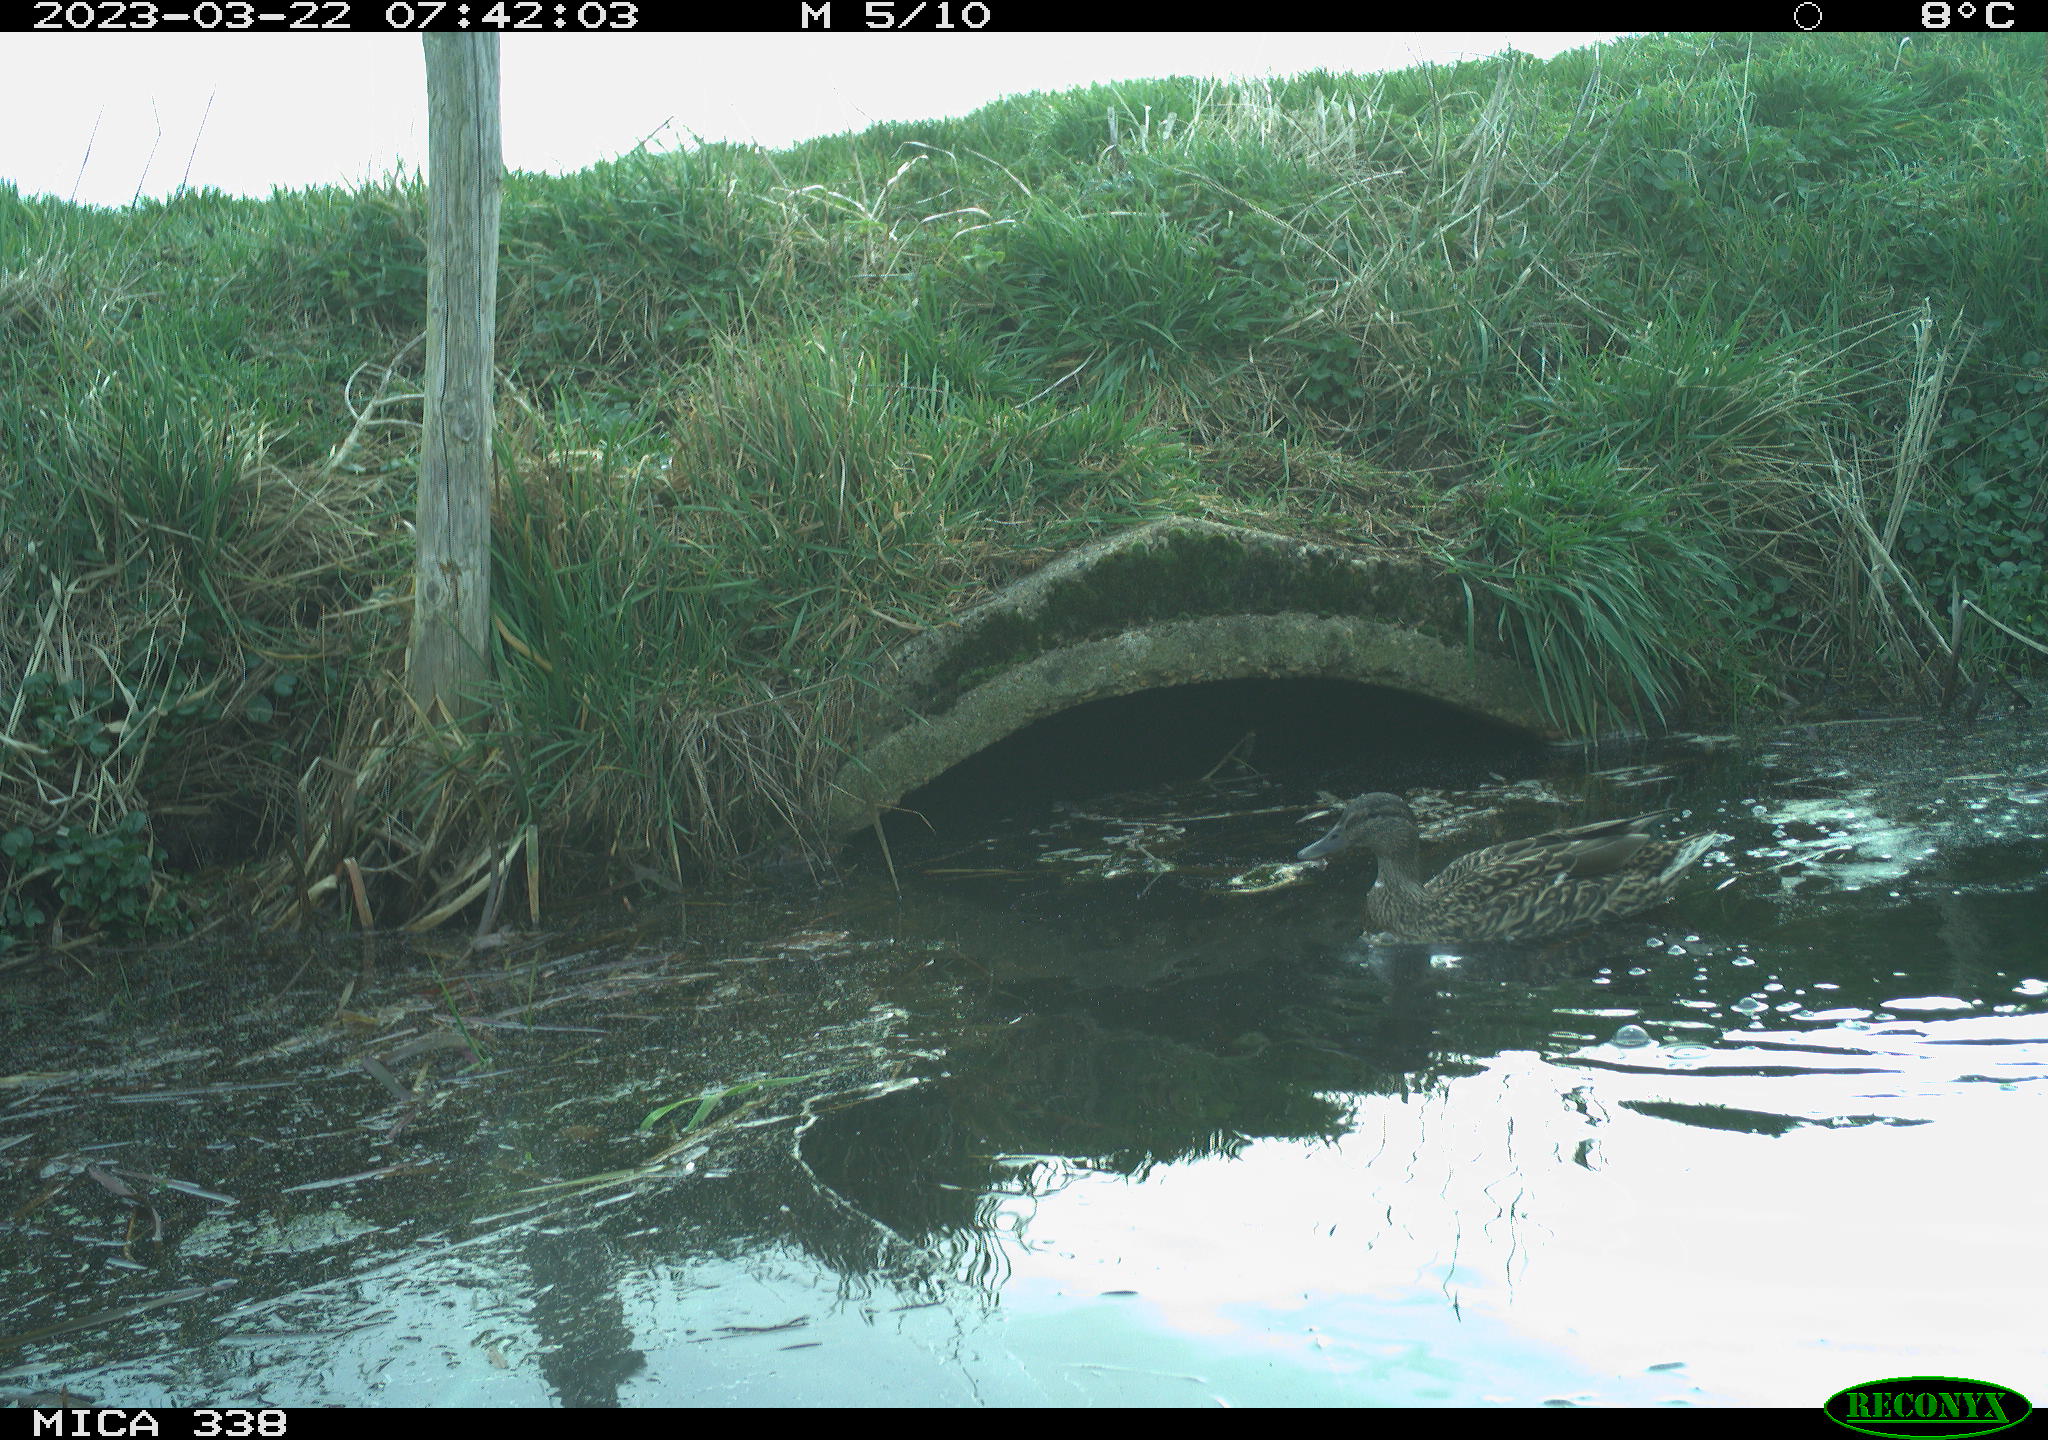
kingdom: Animalia
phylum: Chordata
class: Aves
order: Anseriformes
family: Anatidae
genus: Anas
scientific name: Anas platyrhynchos
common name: Mallard
